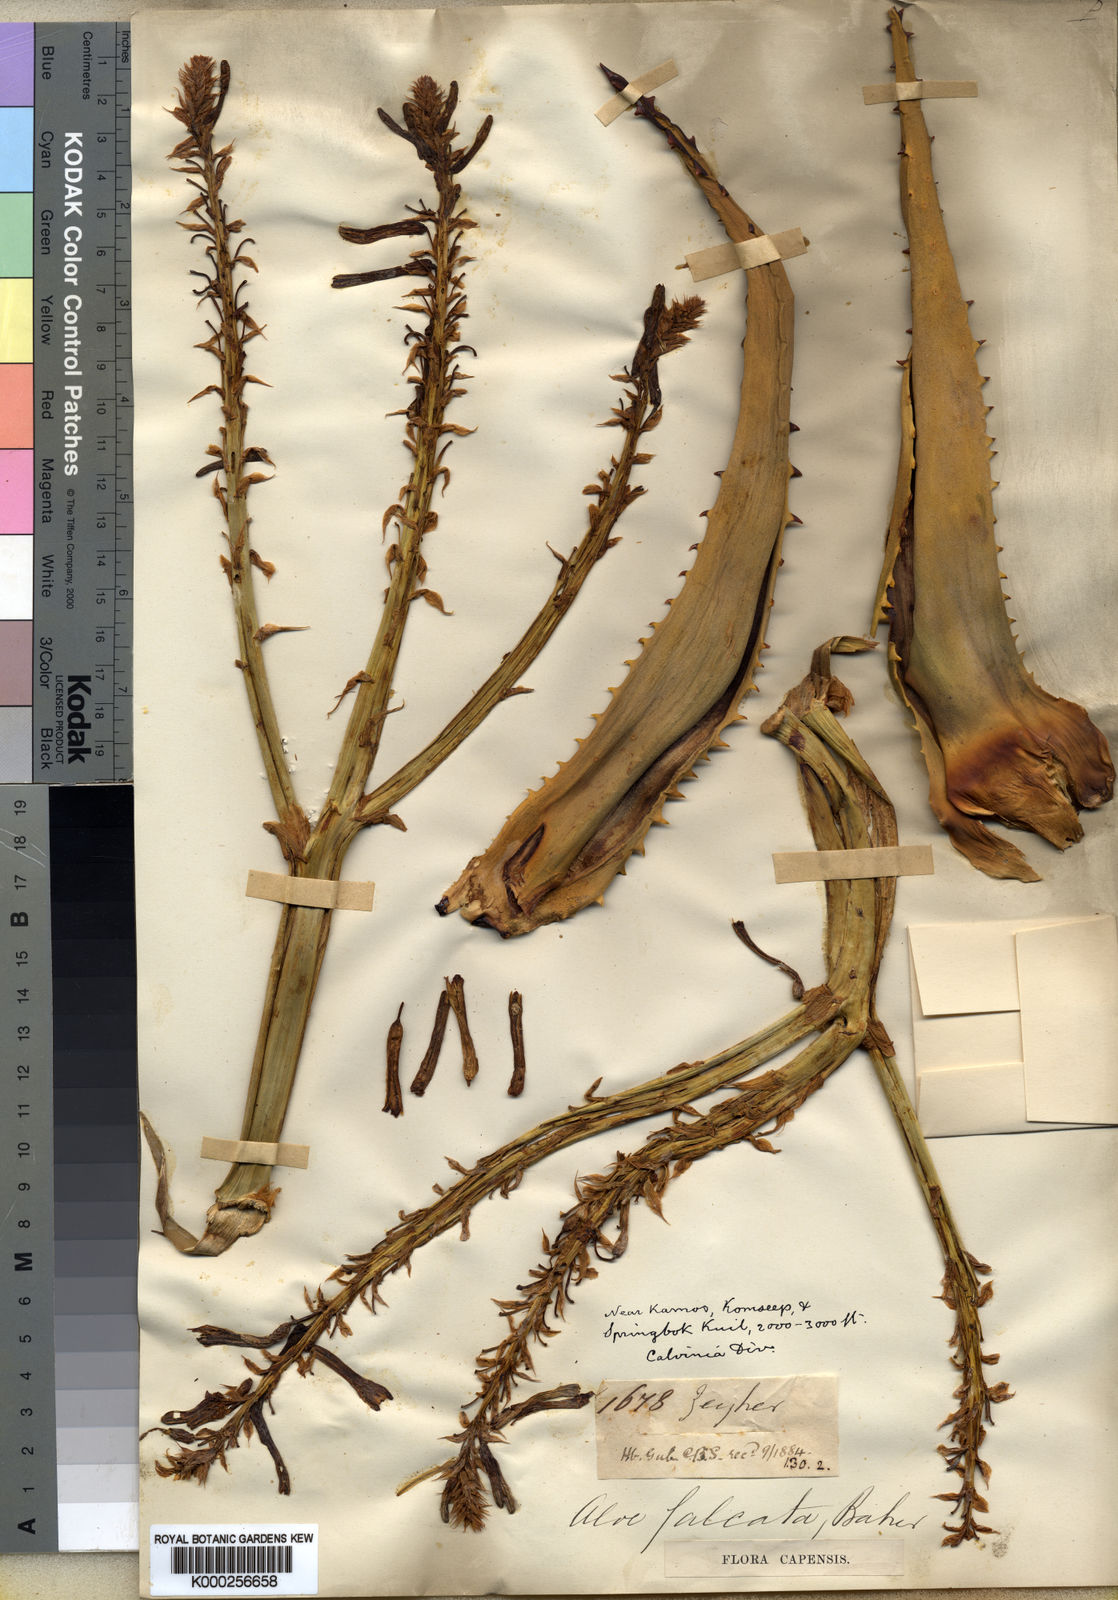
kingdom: Plantae
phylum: Tracheophyta
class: Liliopsida
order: Asparagales
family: Asphodelaceae
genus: Aloe
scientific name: Aloe falcata
